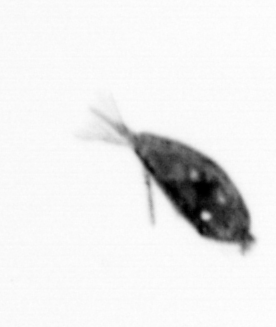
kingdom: Animalia
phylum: Arthropoda
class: Maxillopoda
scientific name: Maxillopoda
